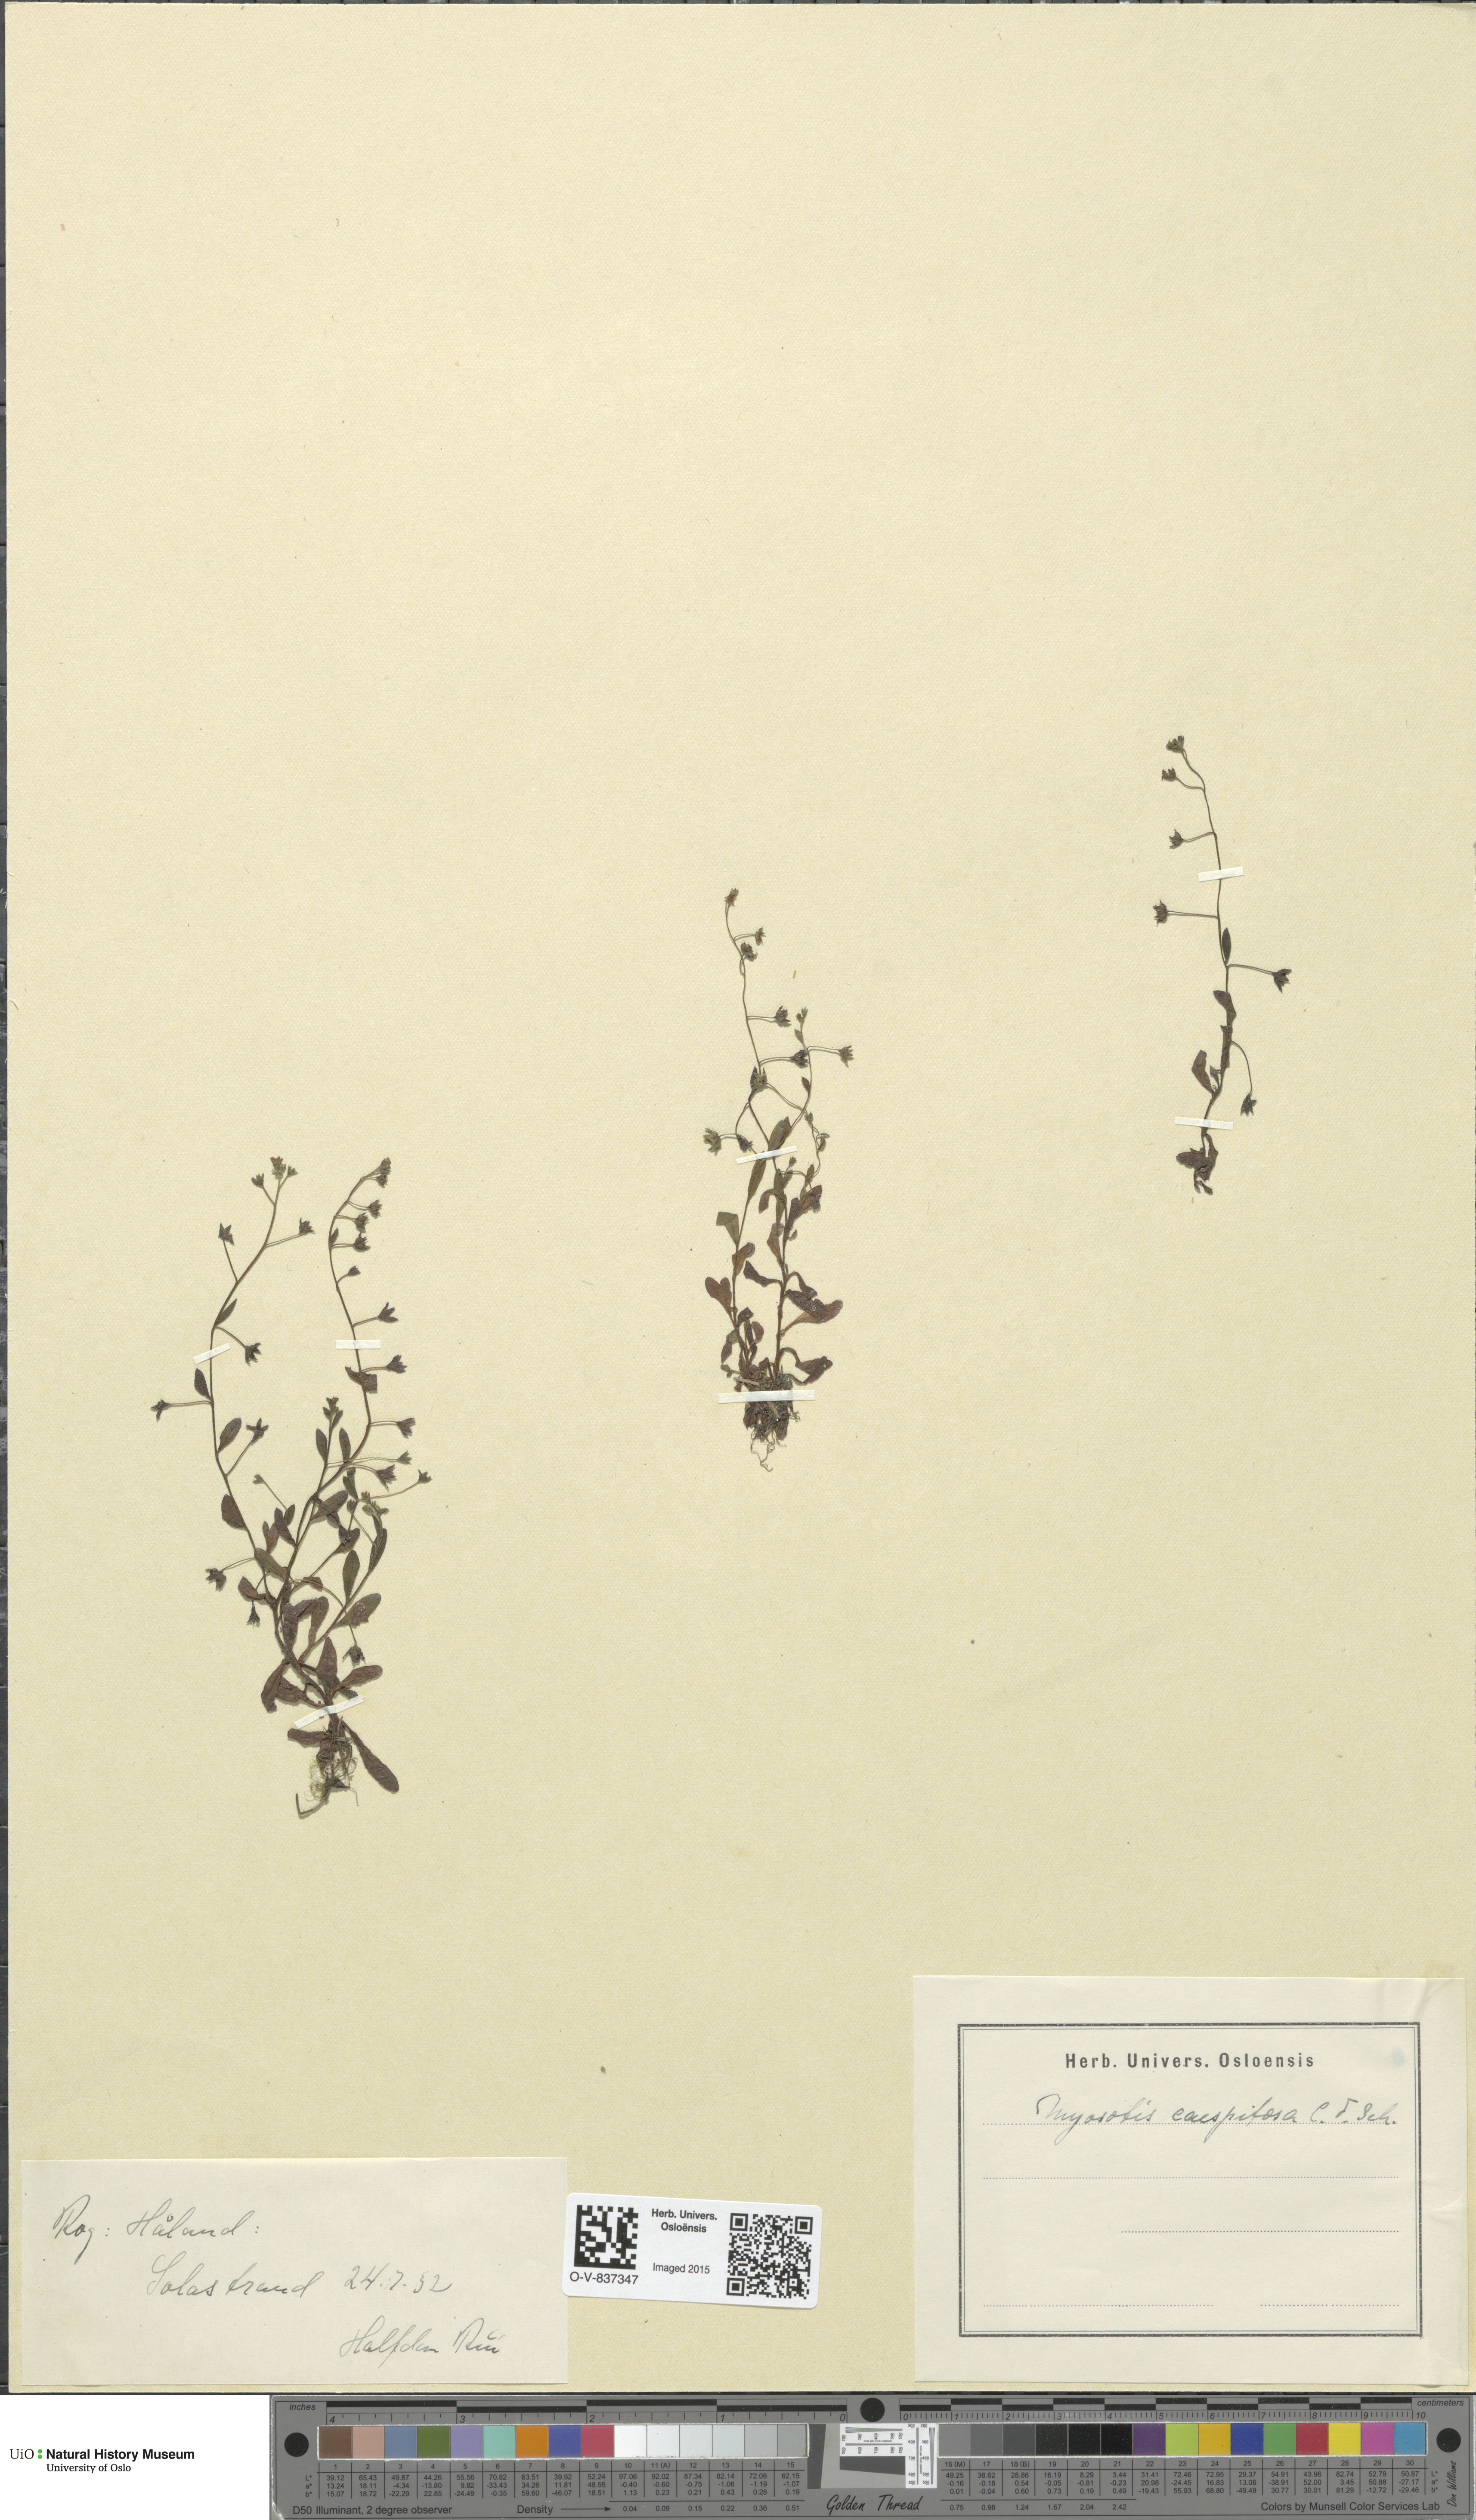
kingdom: Plantae
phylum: Tracheophyta
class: Magnoliopsida
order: Boraginales
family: Boraginaceae
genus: Myosotis
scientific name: Myosotis laxa
